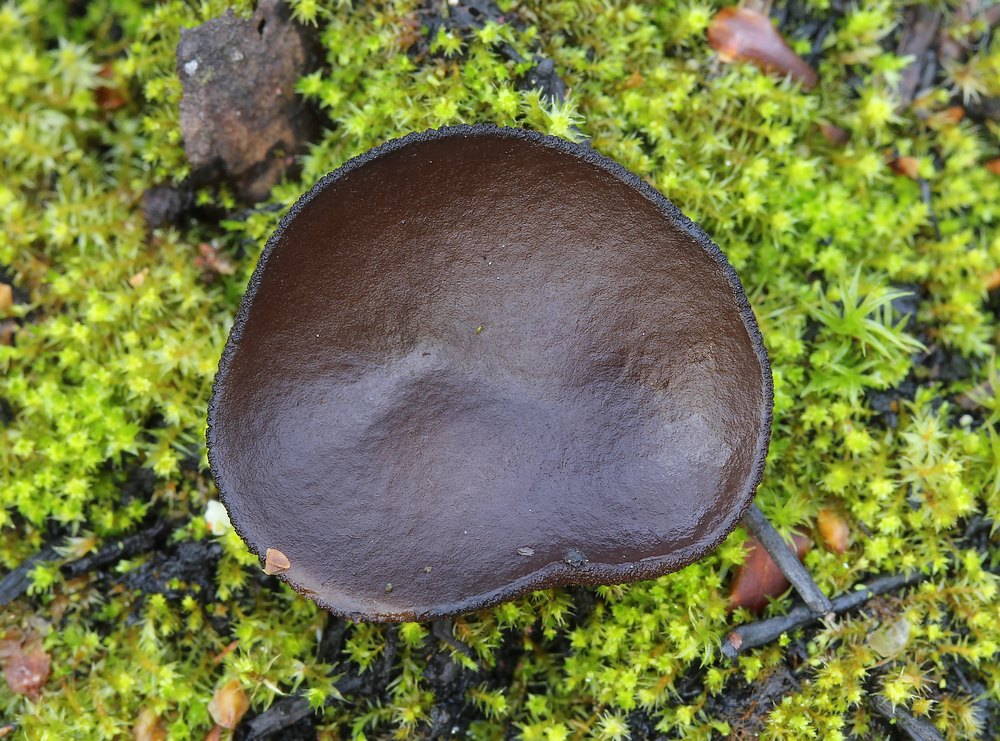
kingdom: Fungi
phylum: Ascomycota
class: Pezizomycetes
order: Pezizales
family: Pyronemataceae
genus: Plicaria
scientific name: Plicaria endocarpoides
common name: glatsporet bålbæger
